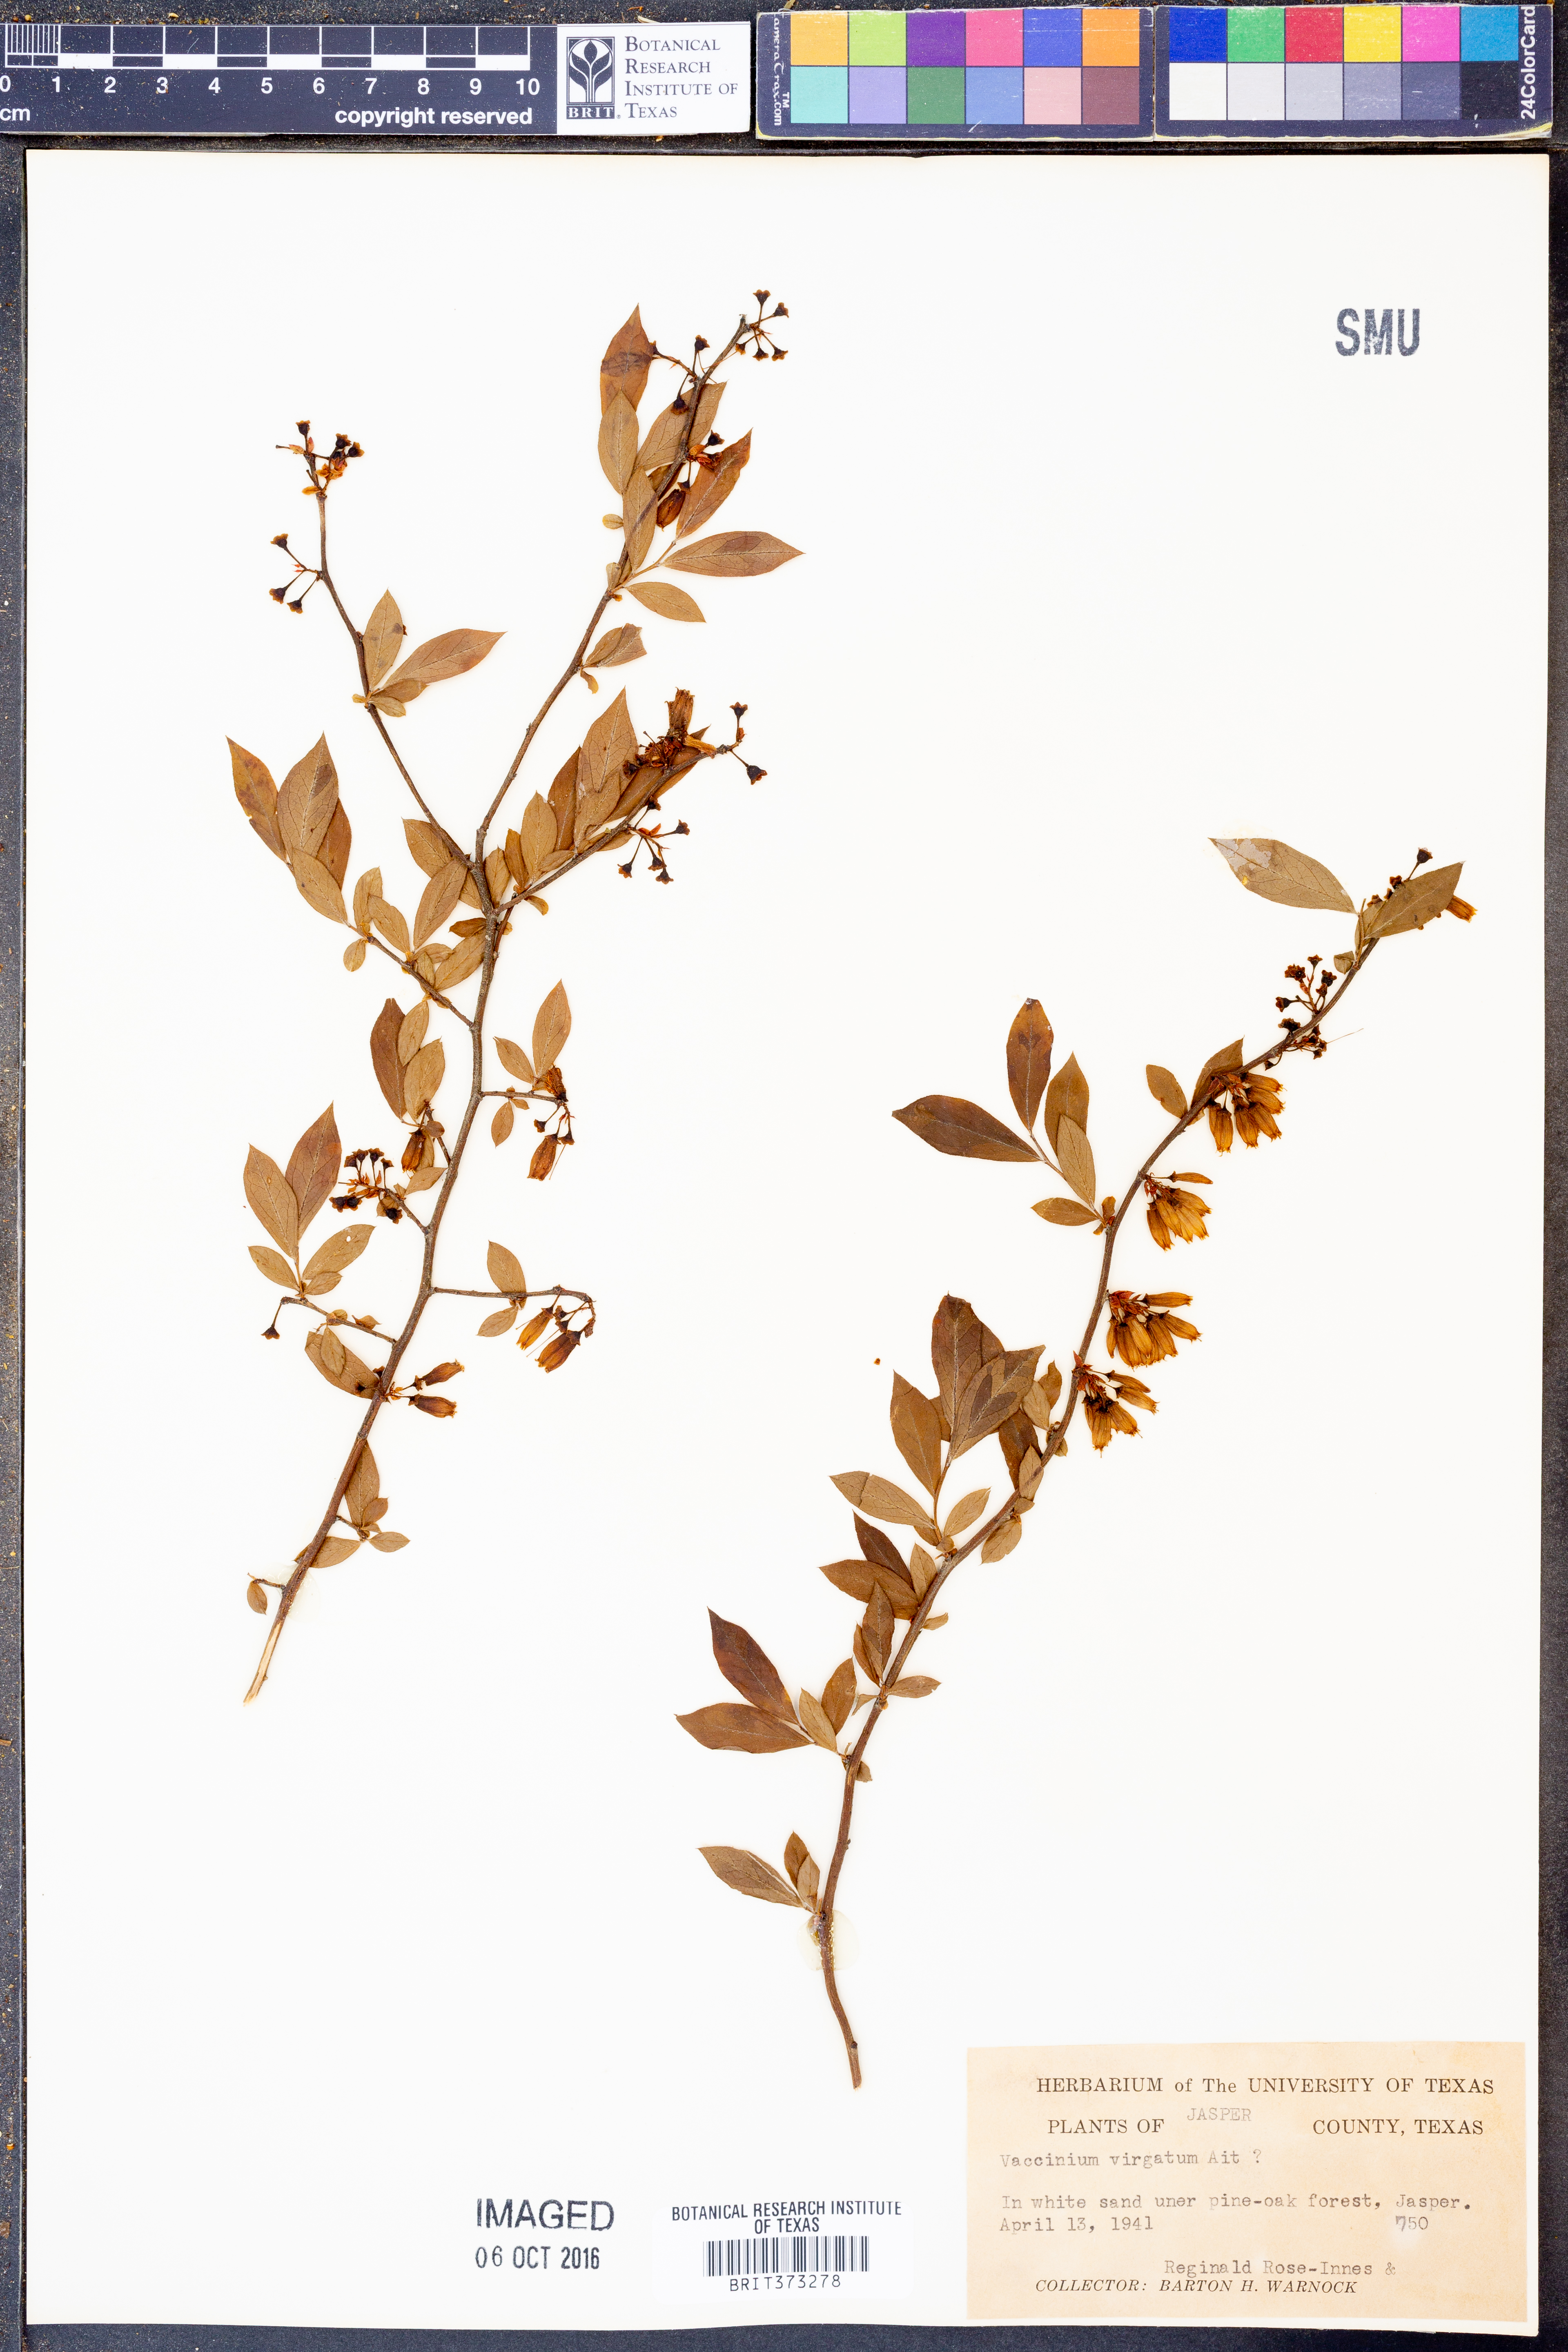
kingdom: Plantae
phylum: Tracheophyta
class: Magnoliopsida
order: Ericales
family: Ericaceae
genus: Vaccinium
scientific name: Vaccinium corymbosum
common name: Blueberry
